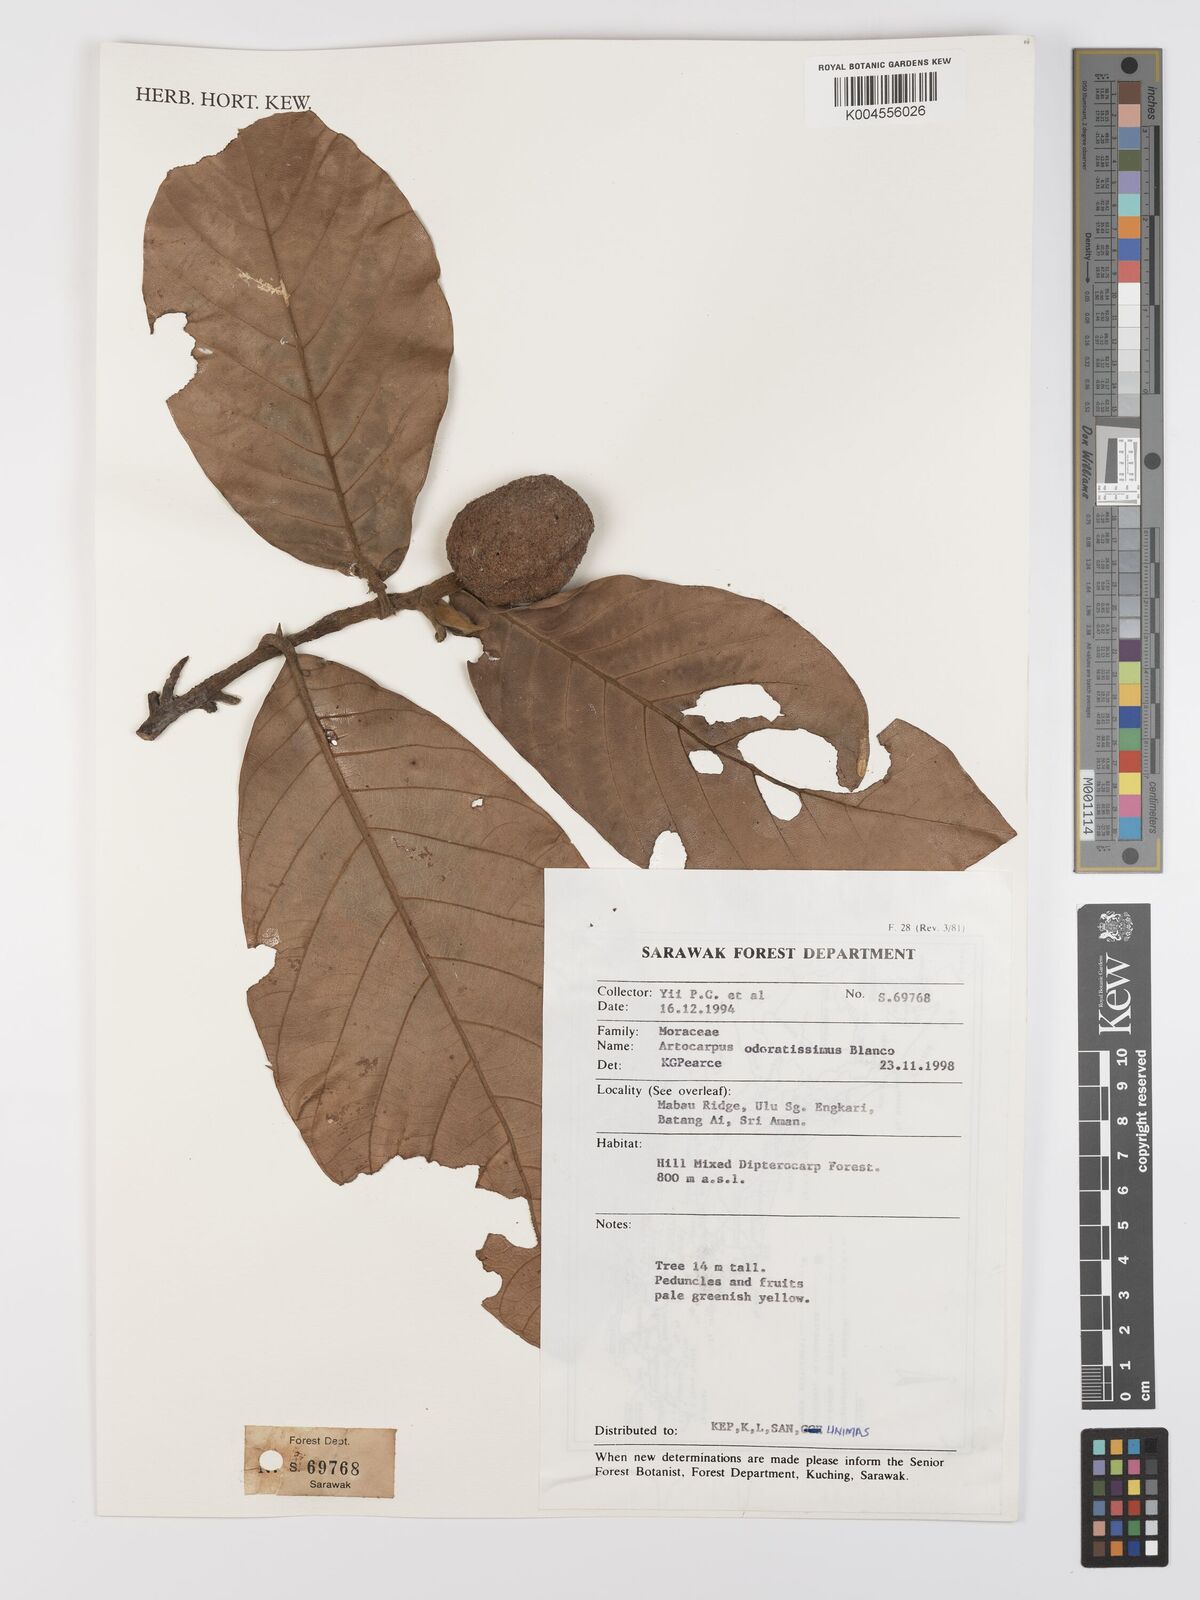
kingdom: Plantae
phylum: Tracheophyta
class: Magnoliopsida
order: Rosales
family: Moraceae
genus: Artocarpus
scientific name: Artocarpus odoratissimus
